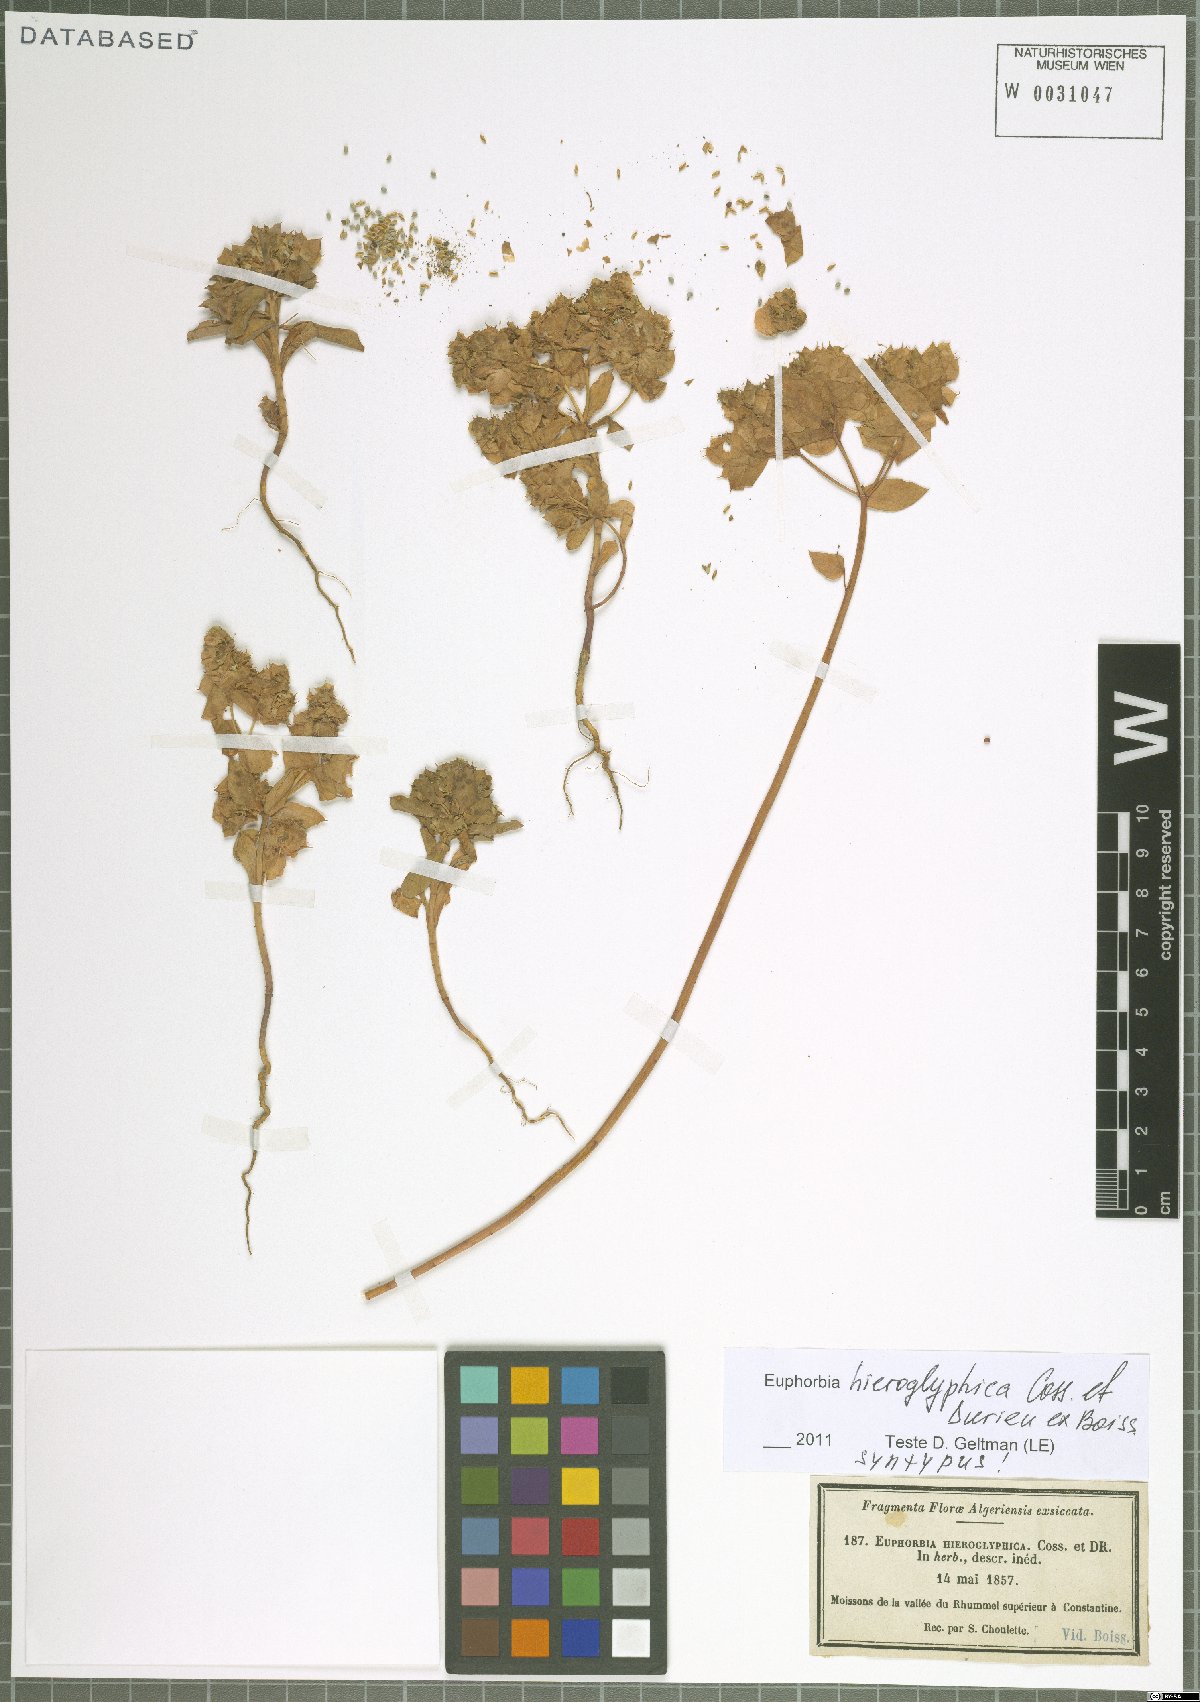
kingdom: Plantae
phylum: Tracheophyta
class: Magnoliopsida
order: Malpighiales
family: Euphorbiaceae
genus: Euphorbia
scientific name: Euphorbia hieroglyphica
